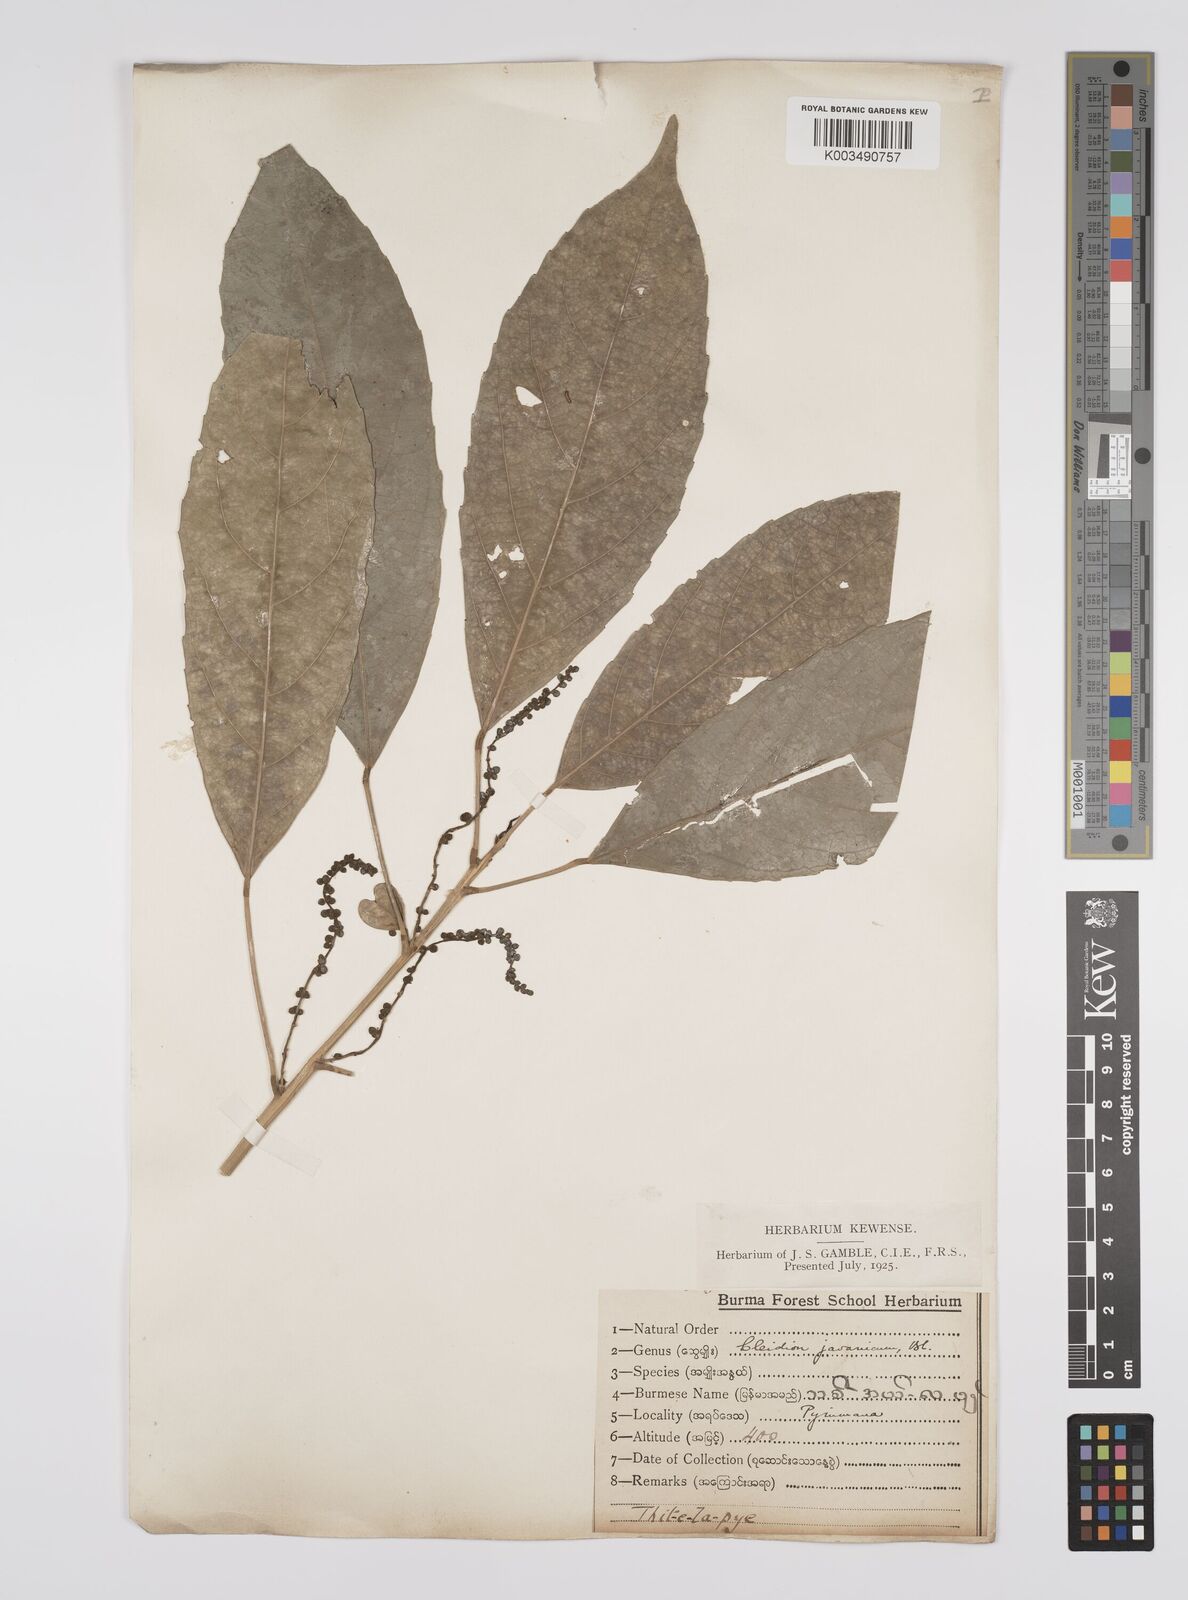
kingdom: Plantae
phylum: Tracheophyta
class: Magnoliopsida
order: Malpighiales
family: Euphorbiaceae
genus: Acalypha
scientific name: Acalypha spiciflora
